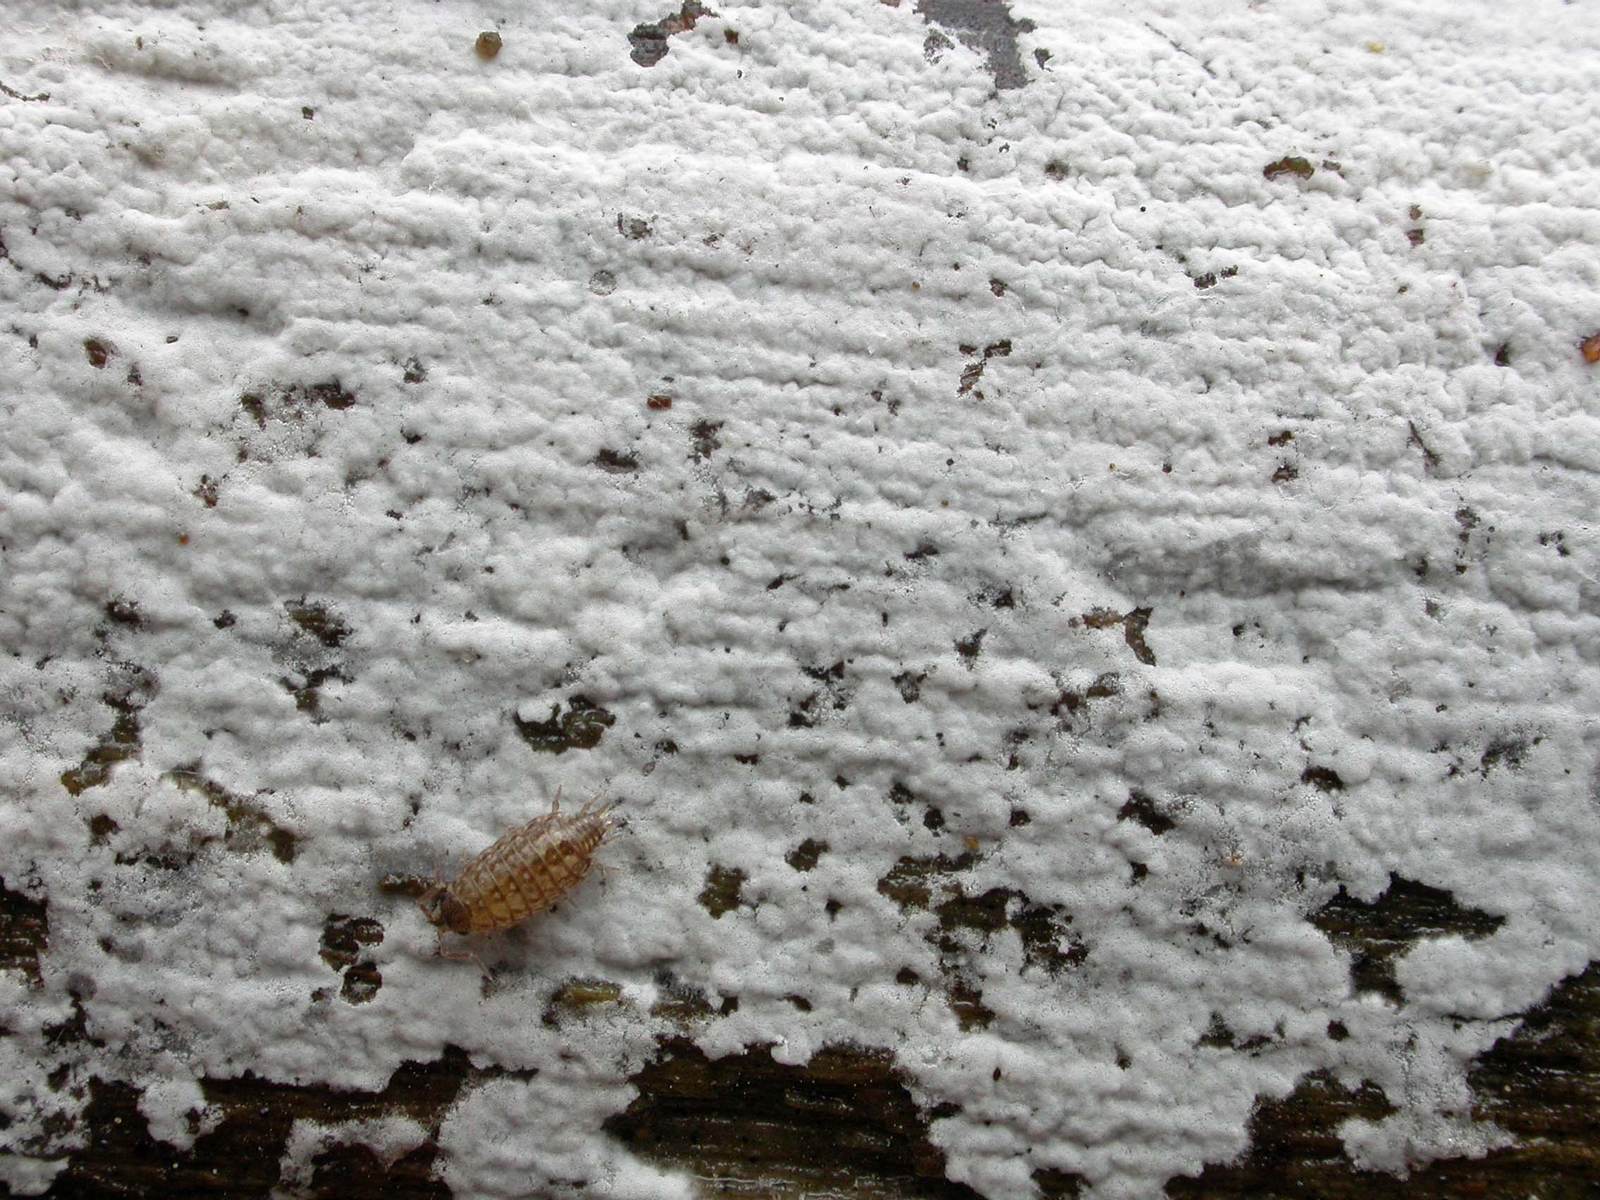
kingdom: Fungi
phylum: Basidiomycota
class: Agaricomycetes
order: Atheliales
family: Atheliaceae
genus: Athelia
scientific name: Athelia epiphylla
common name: almindelig barkhinde
